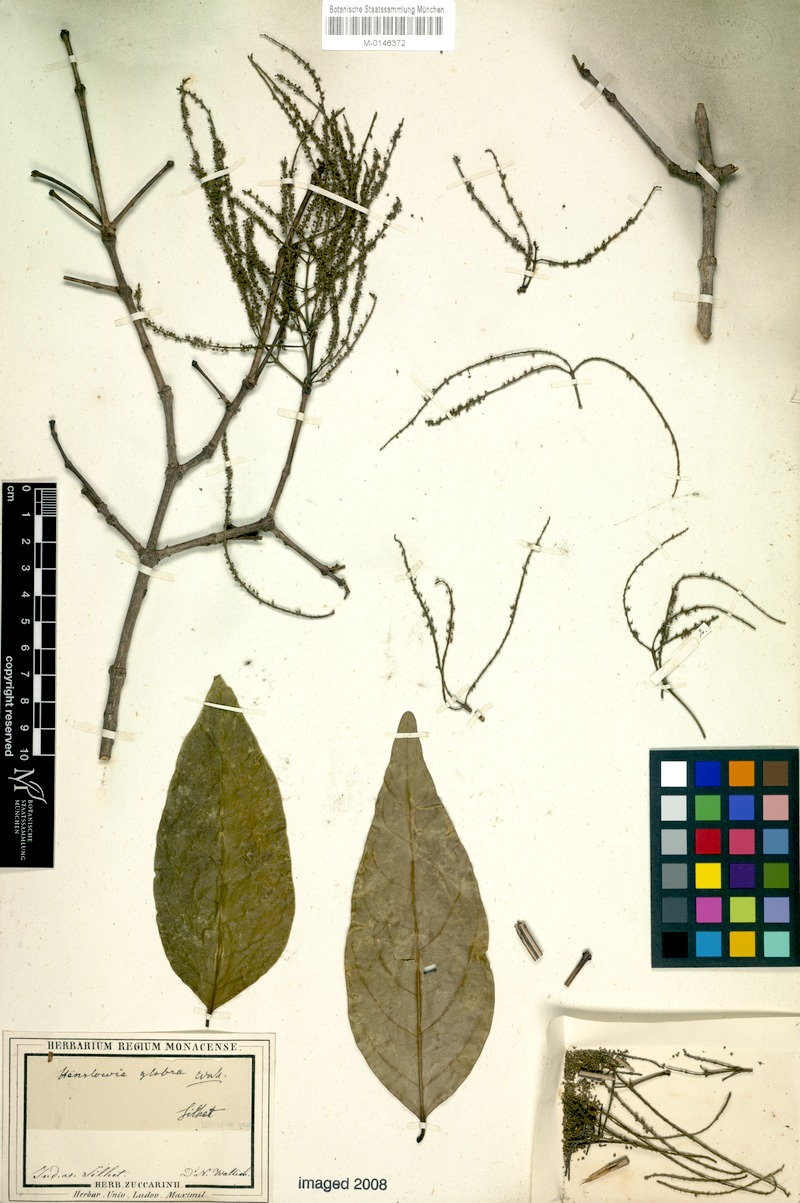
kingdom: Plantae
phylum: Tracheophyta
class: Magnoliopsida
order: Myrtales
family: Crypteroniaceae
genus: Crypteronia
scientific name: Crypteronia paniculata
